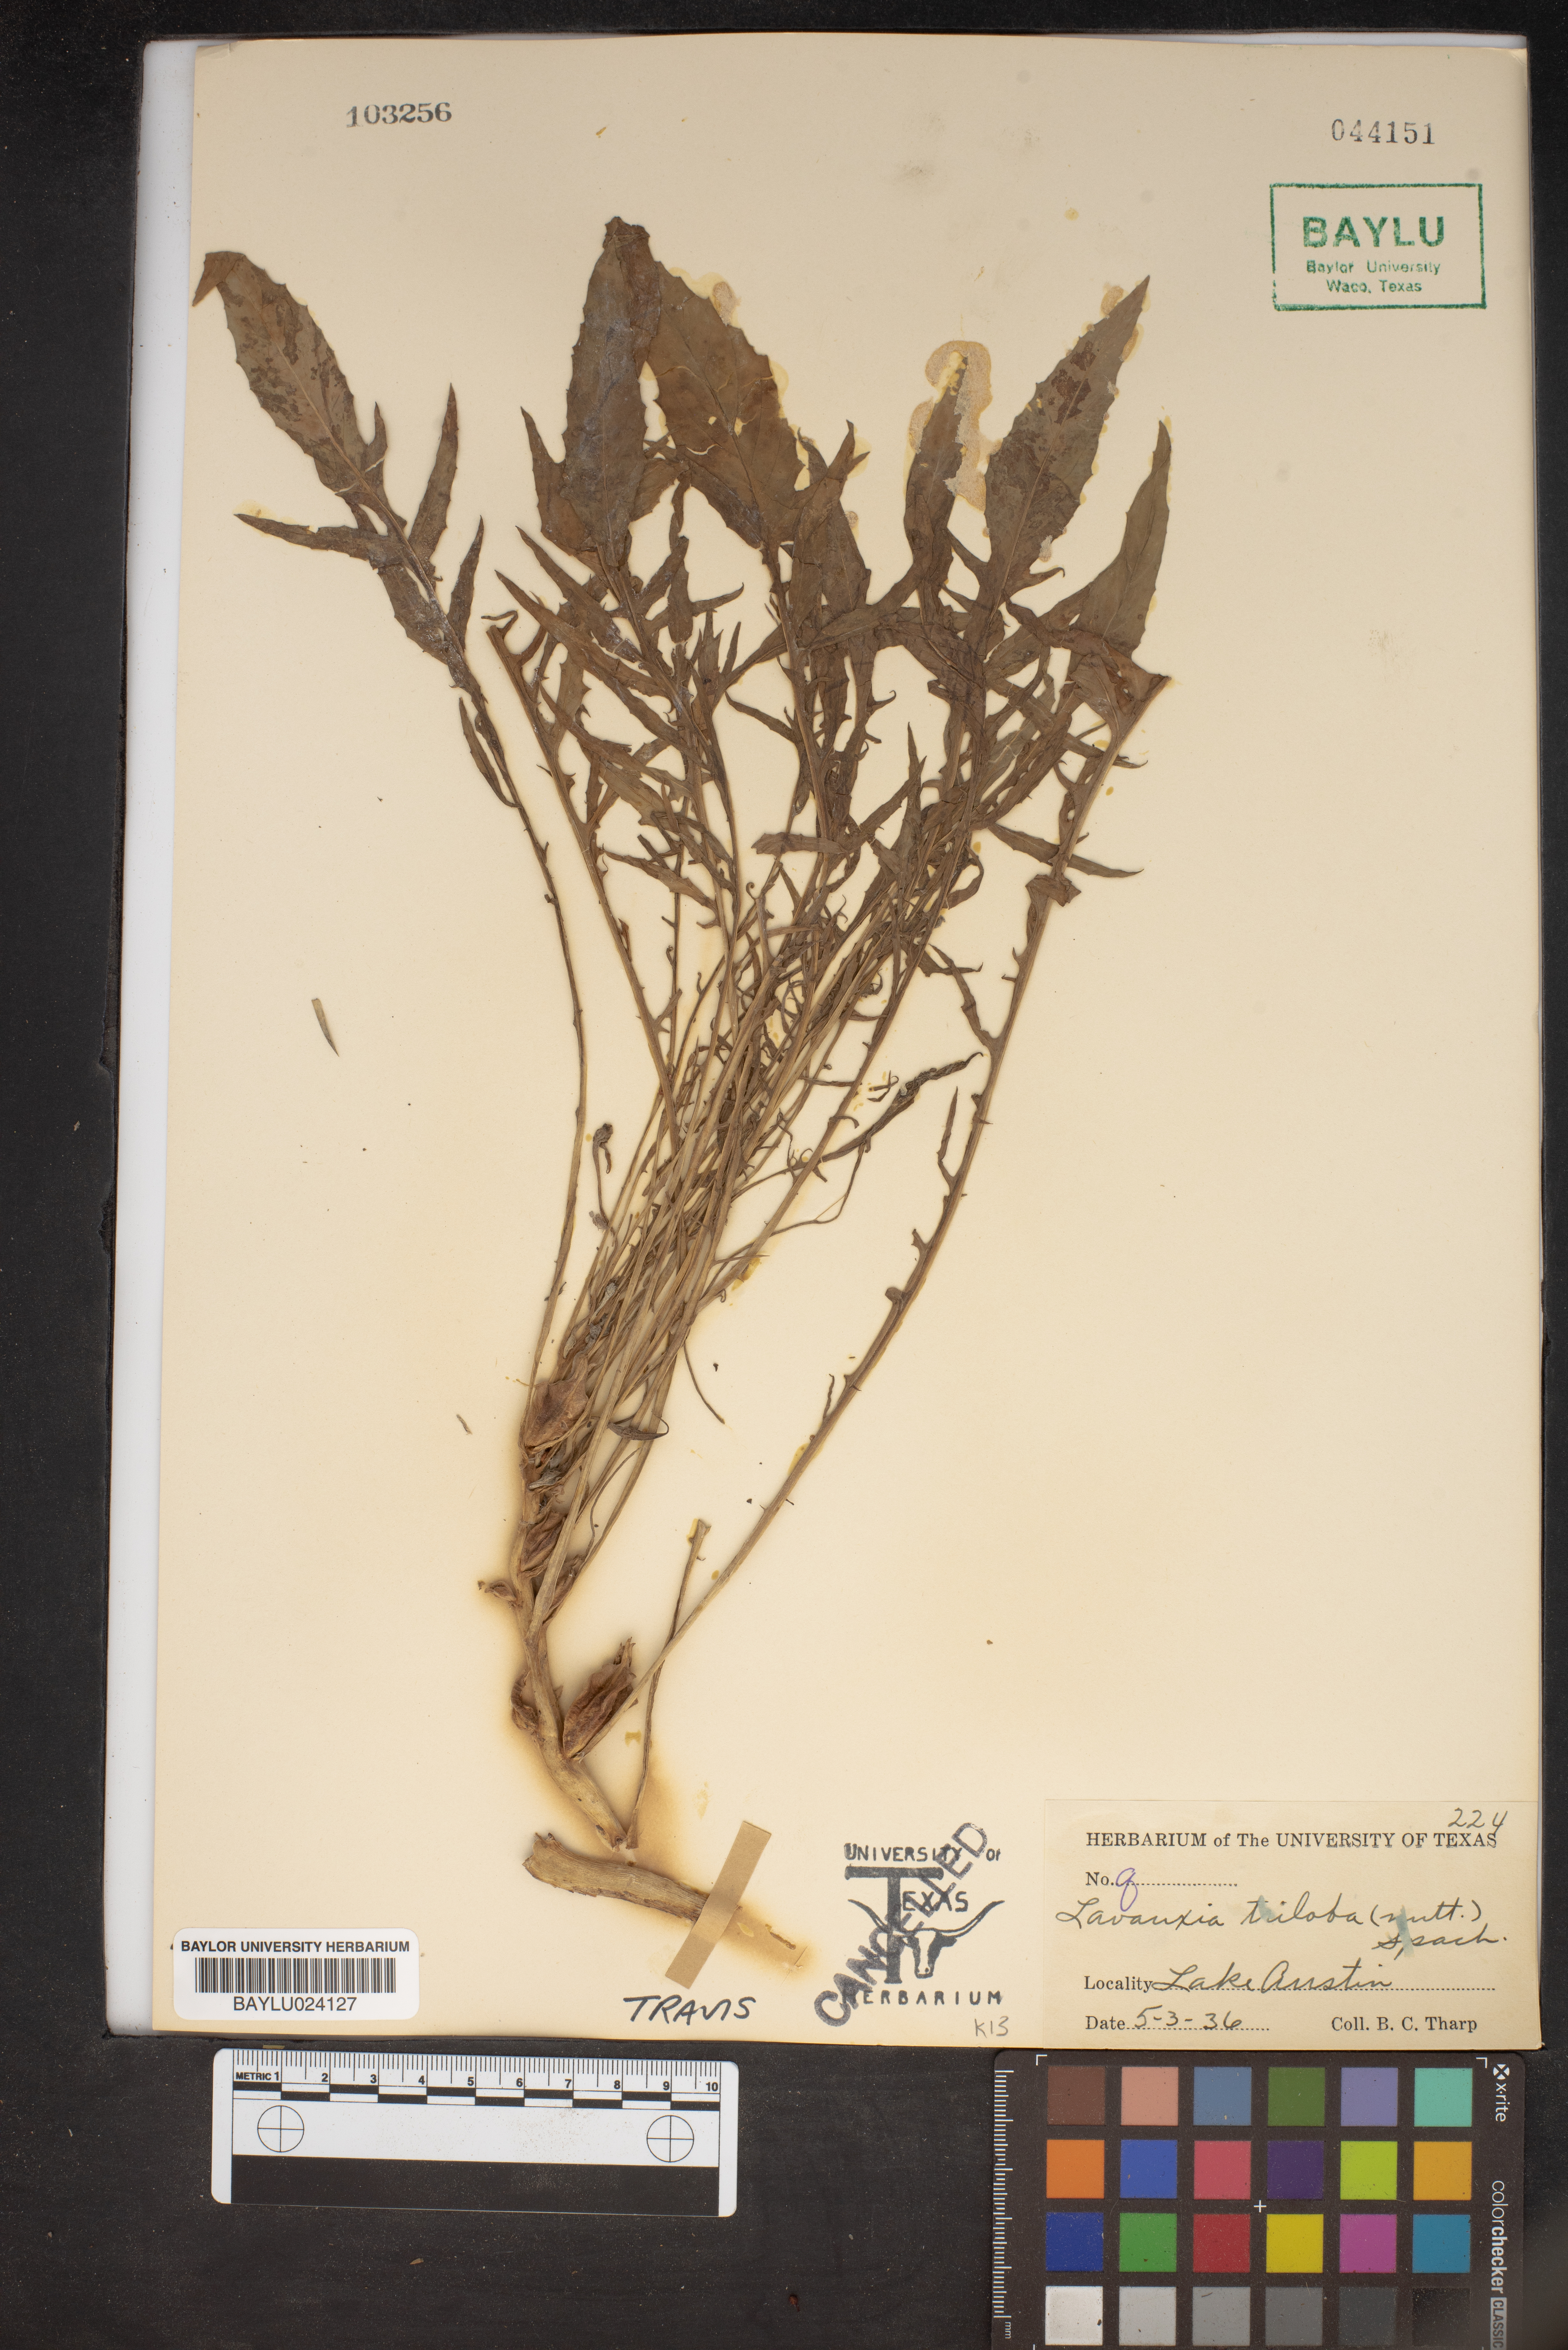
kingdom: Plantae
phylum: Tracheophyta
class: Magnoliopsida
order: Myrtales
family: Onagraceae
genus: Oenothera
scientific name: Oenothera triloba
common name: Sessile evening-primrose
